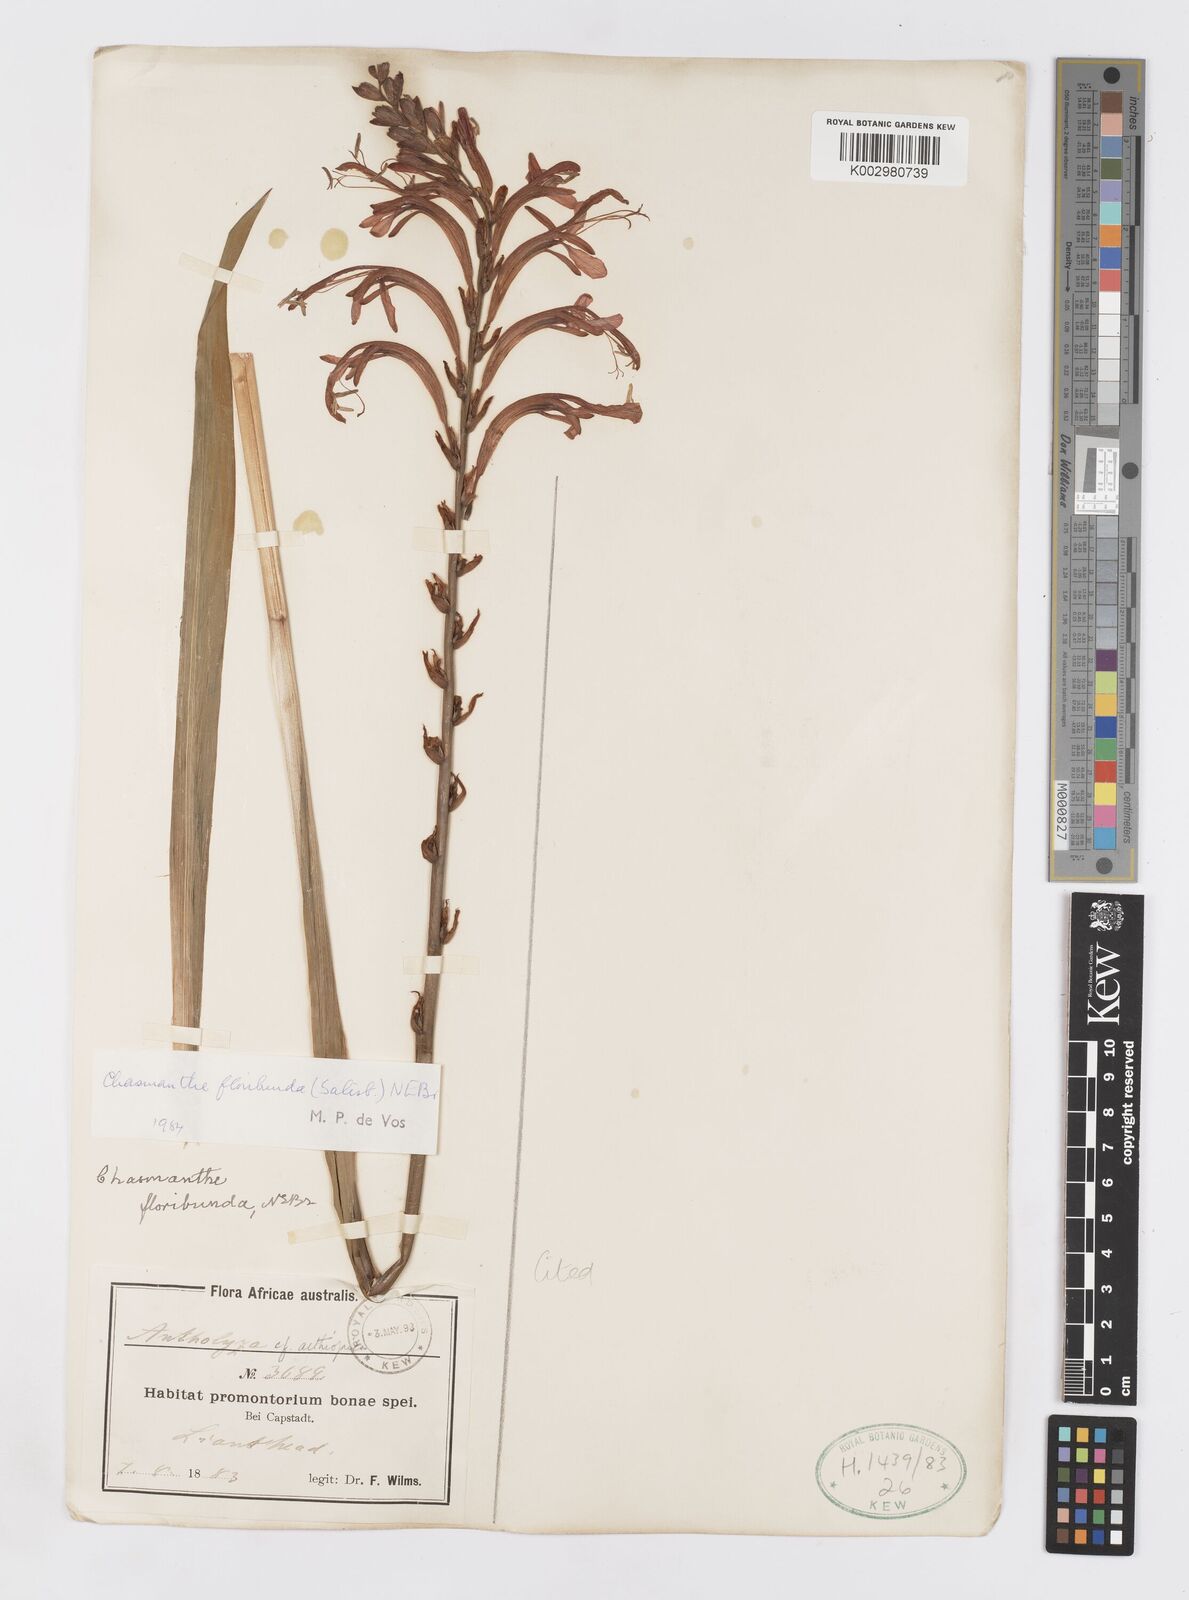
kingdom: Plantae
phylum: Tracheophyta
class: Liliopsida
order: Asparagales
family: Iridaceae
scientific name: Iridaceae
